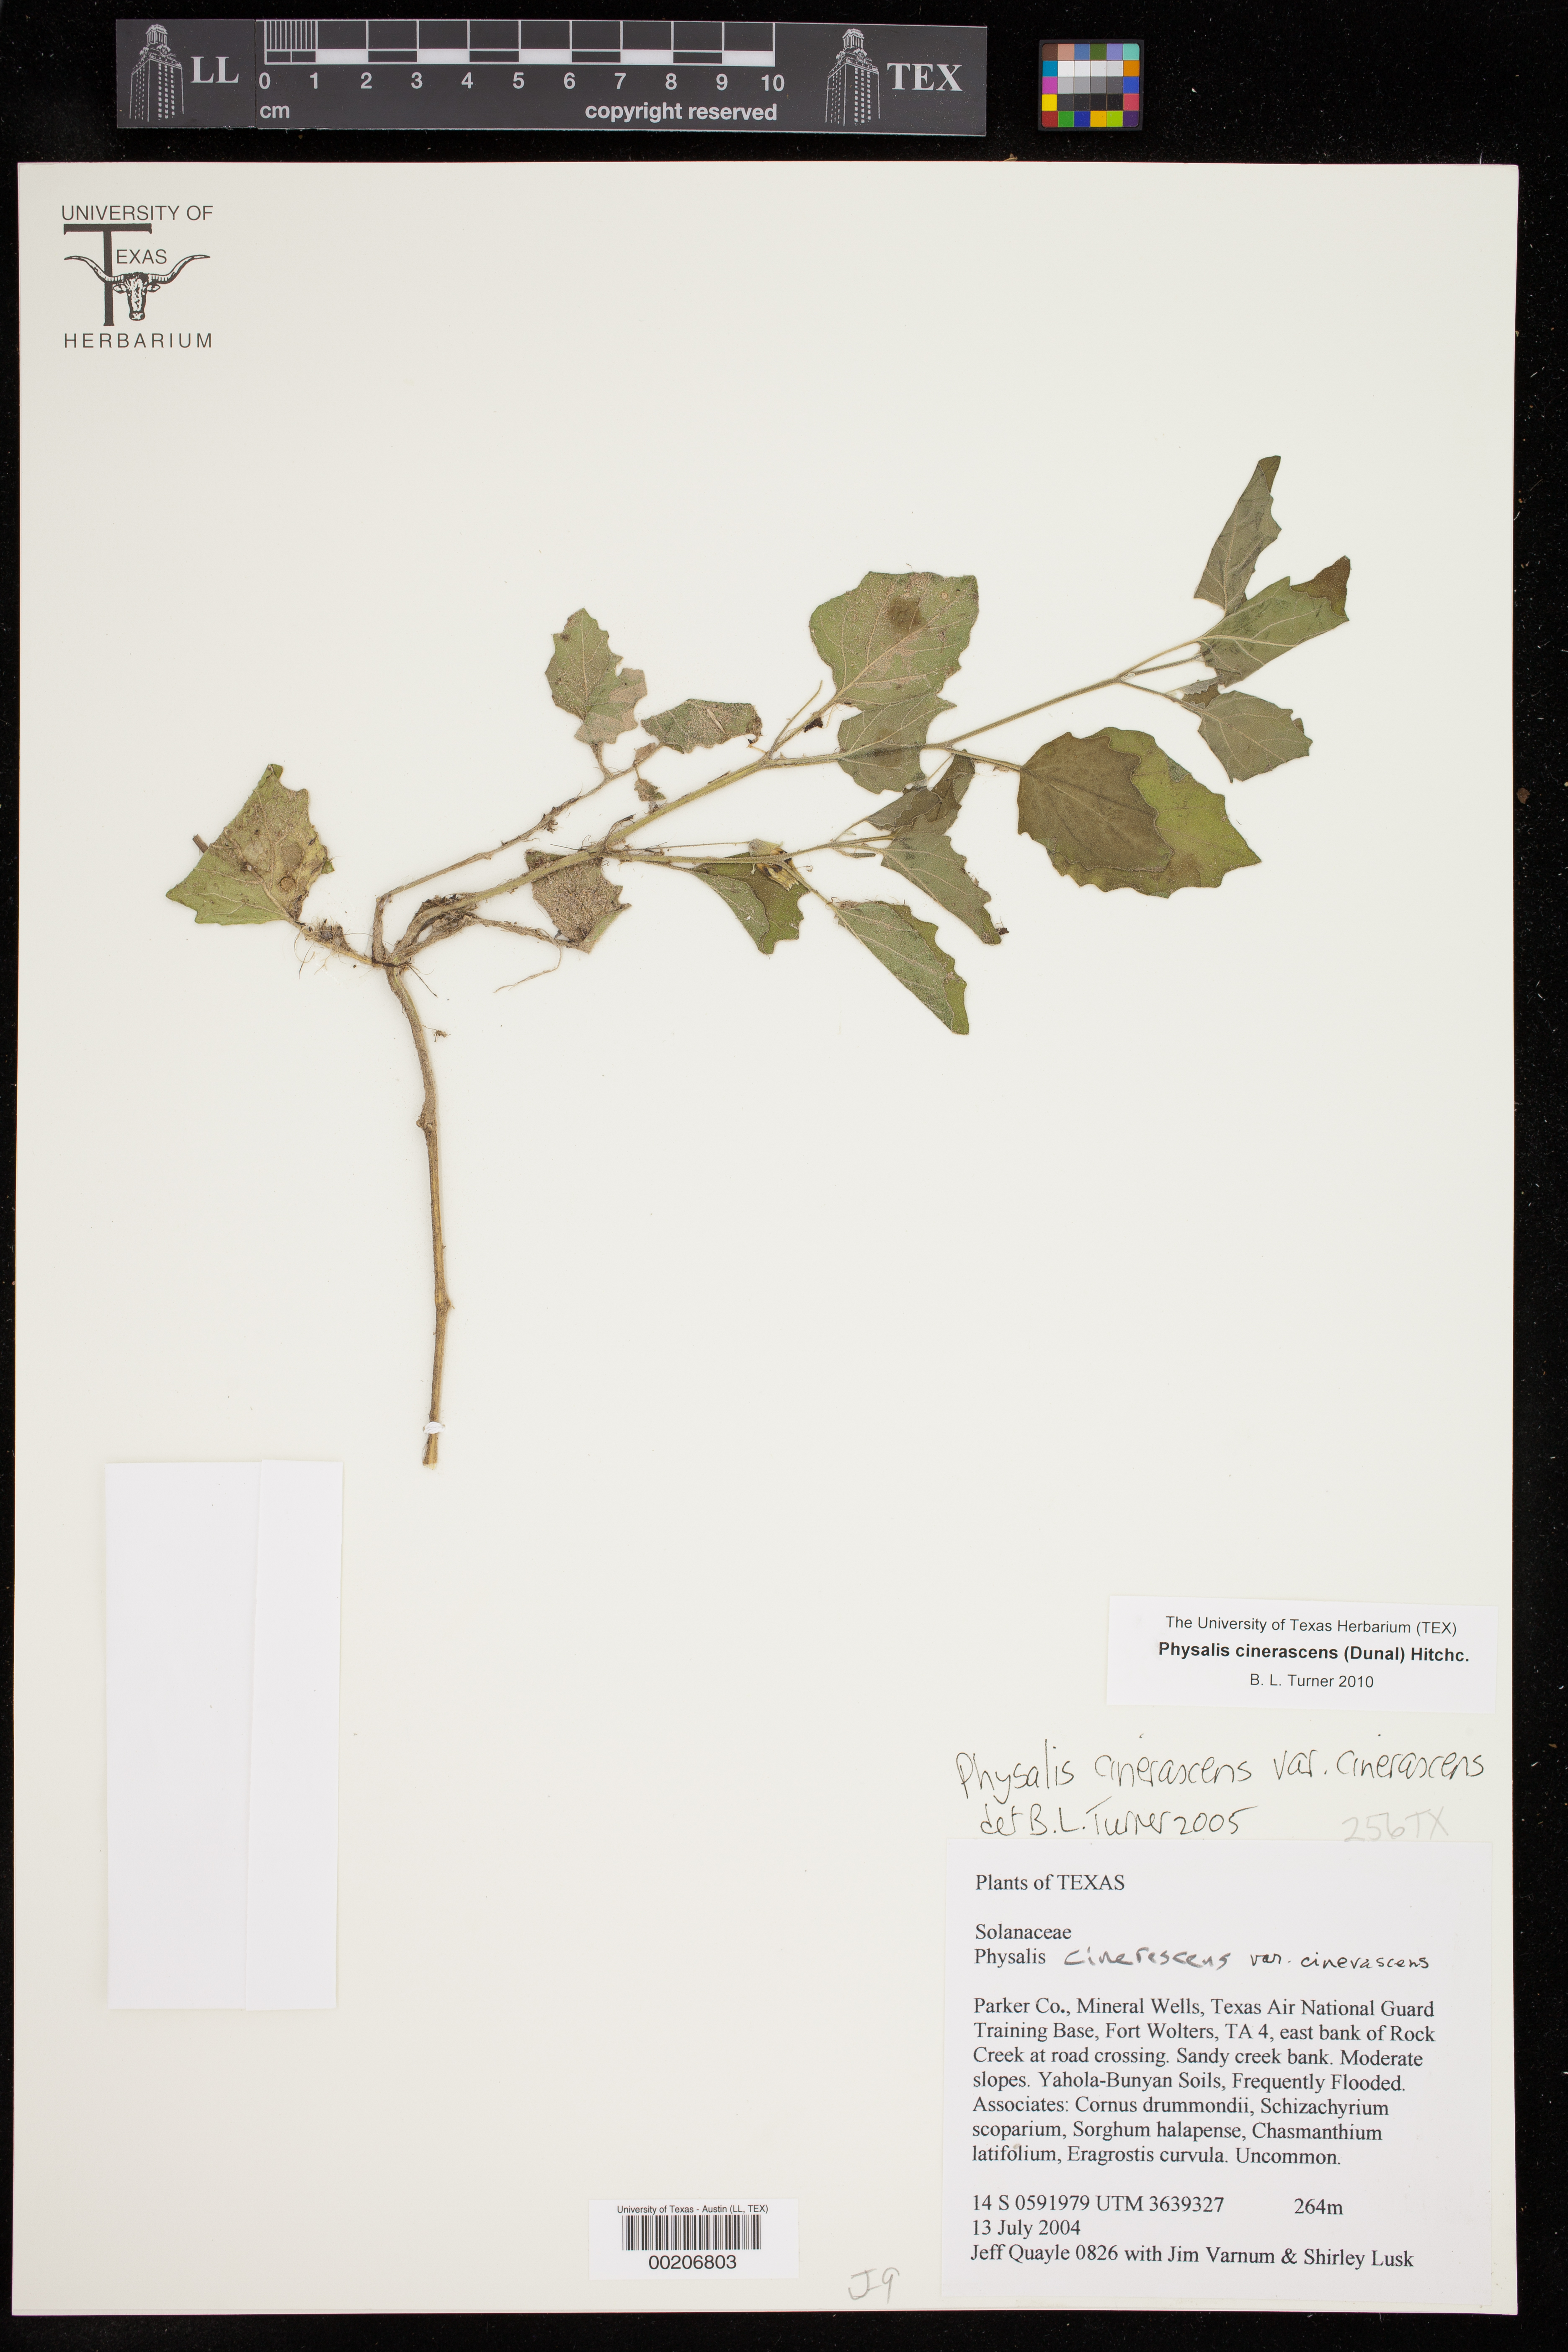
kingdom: Plantae
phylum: Tracheophyta
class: Magnoliopsida
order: Solanales
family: Solanaceae
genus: Physalis
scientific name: Physalis cinerascens
